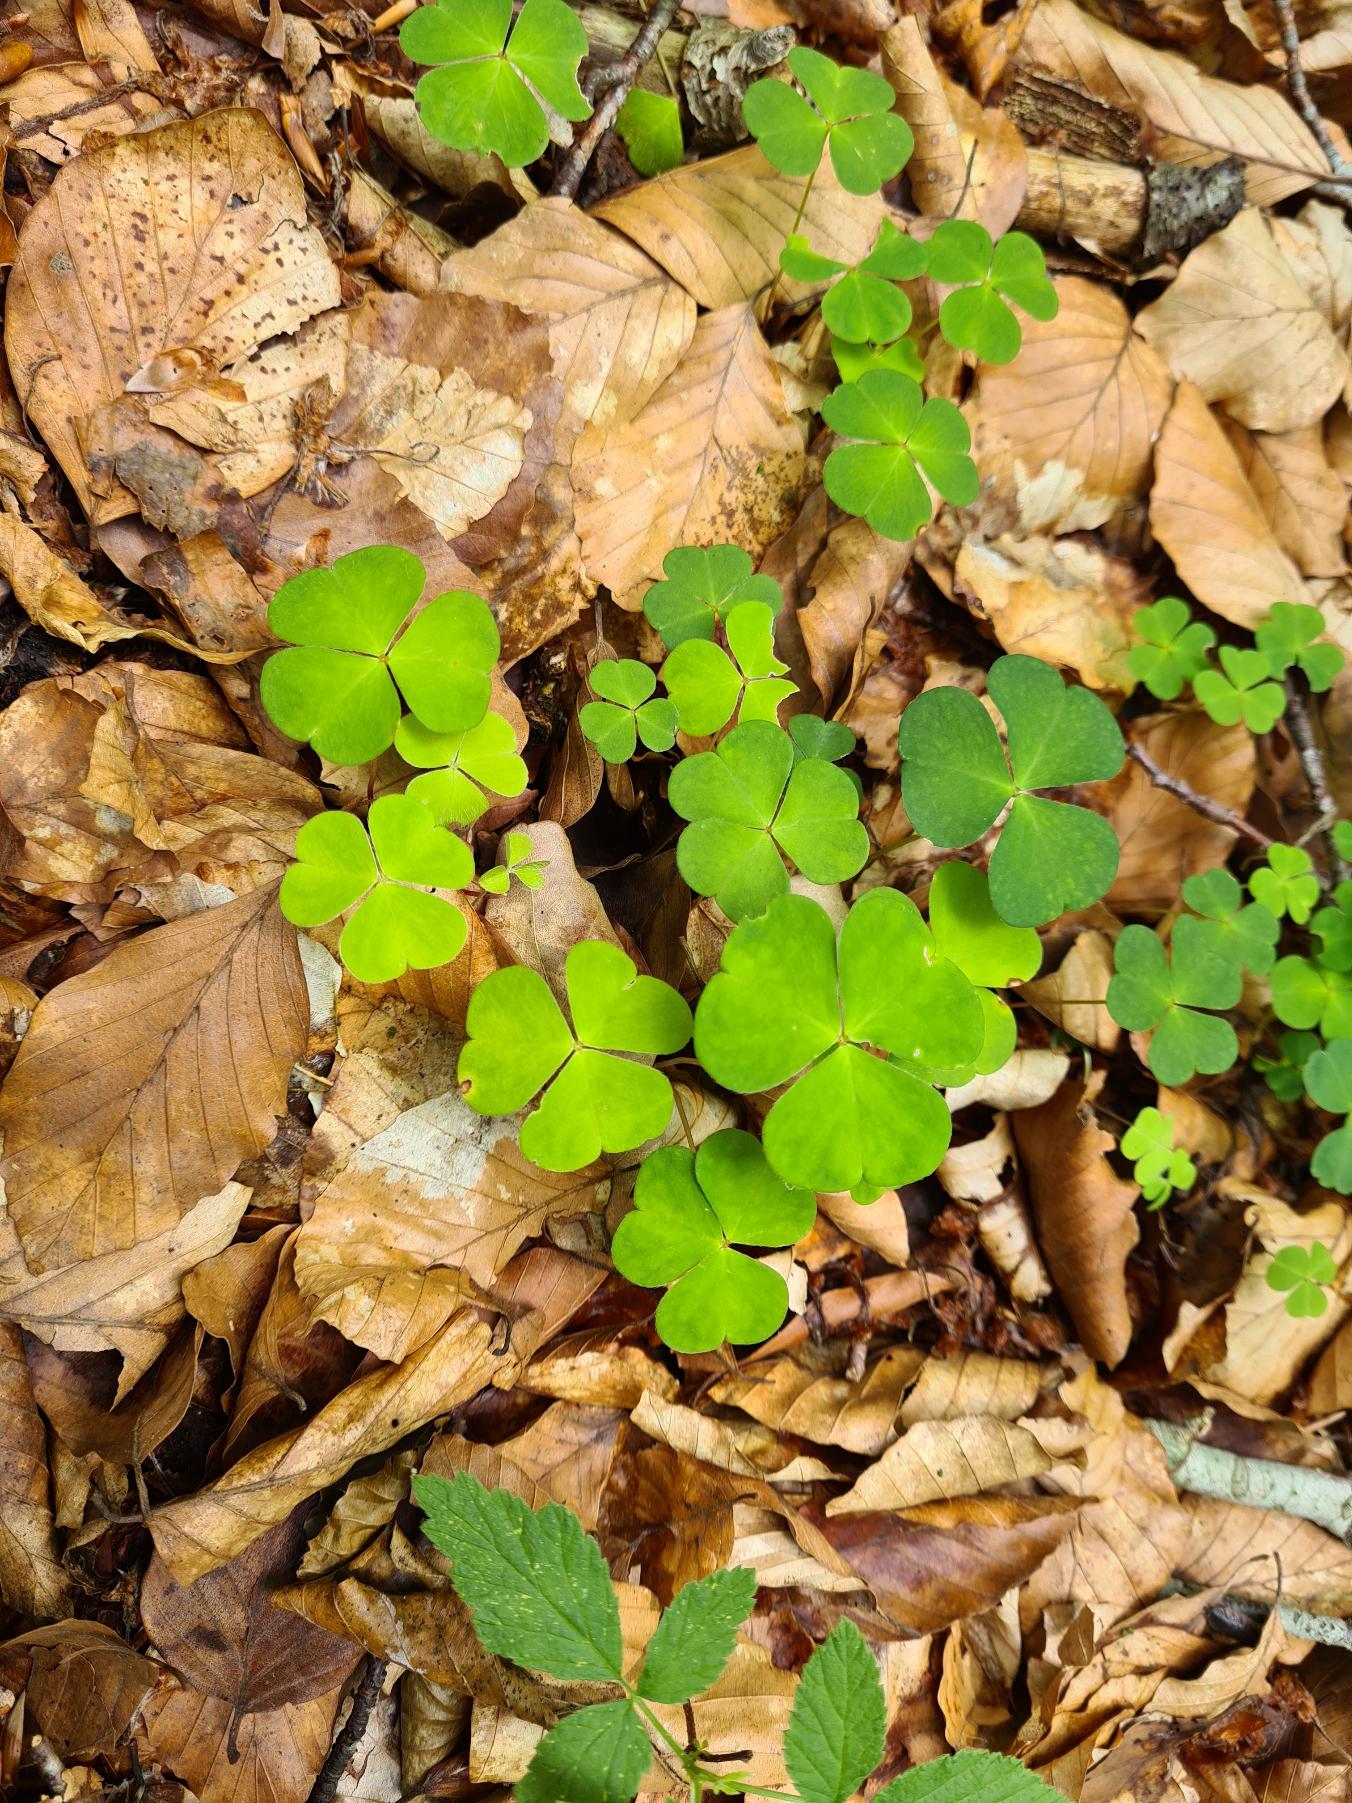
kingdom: Plantae
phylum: Tracheophyta
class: Magnoliopsida
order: Oxalidales
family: Oxalidaceae
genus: Oxalis
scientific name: Oxalis acetosella
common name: Skovsyre
